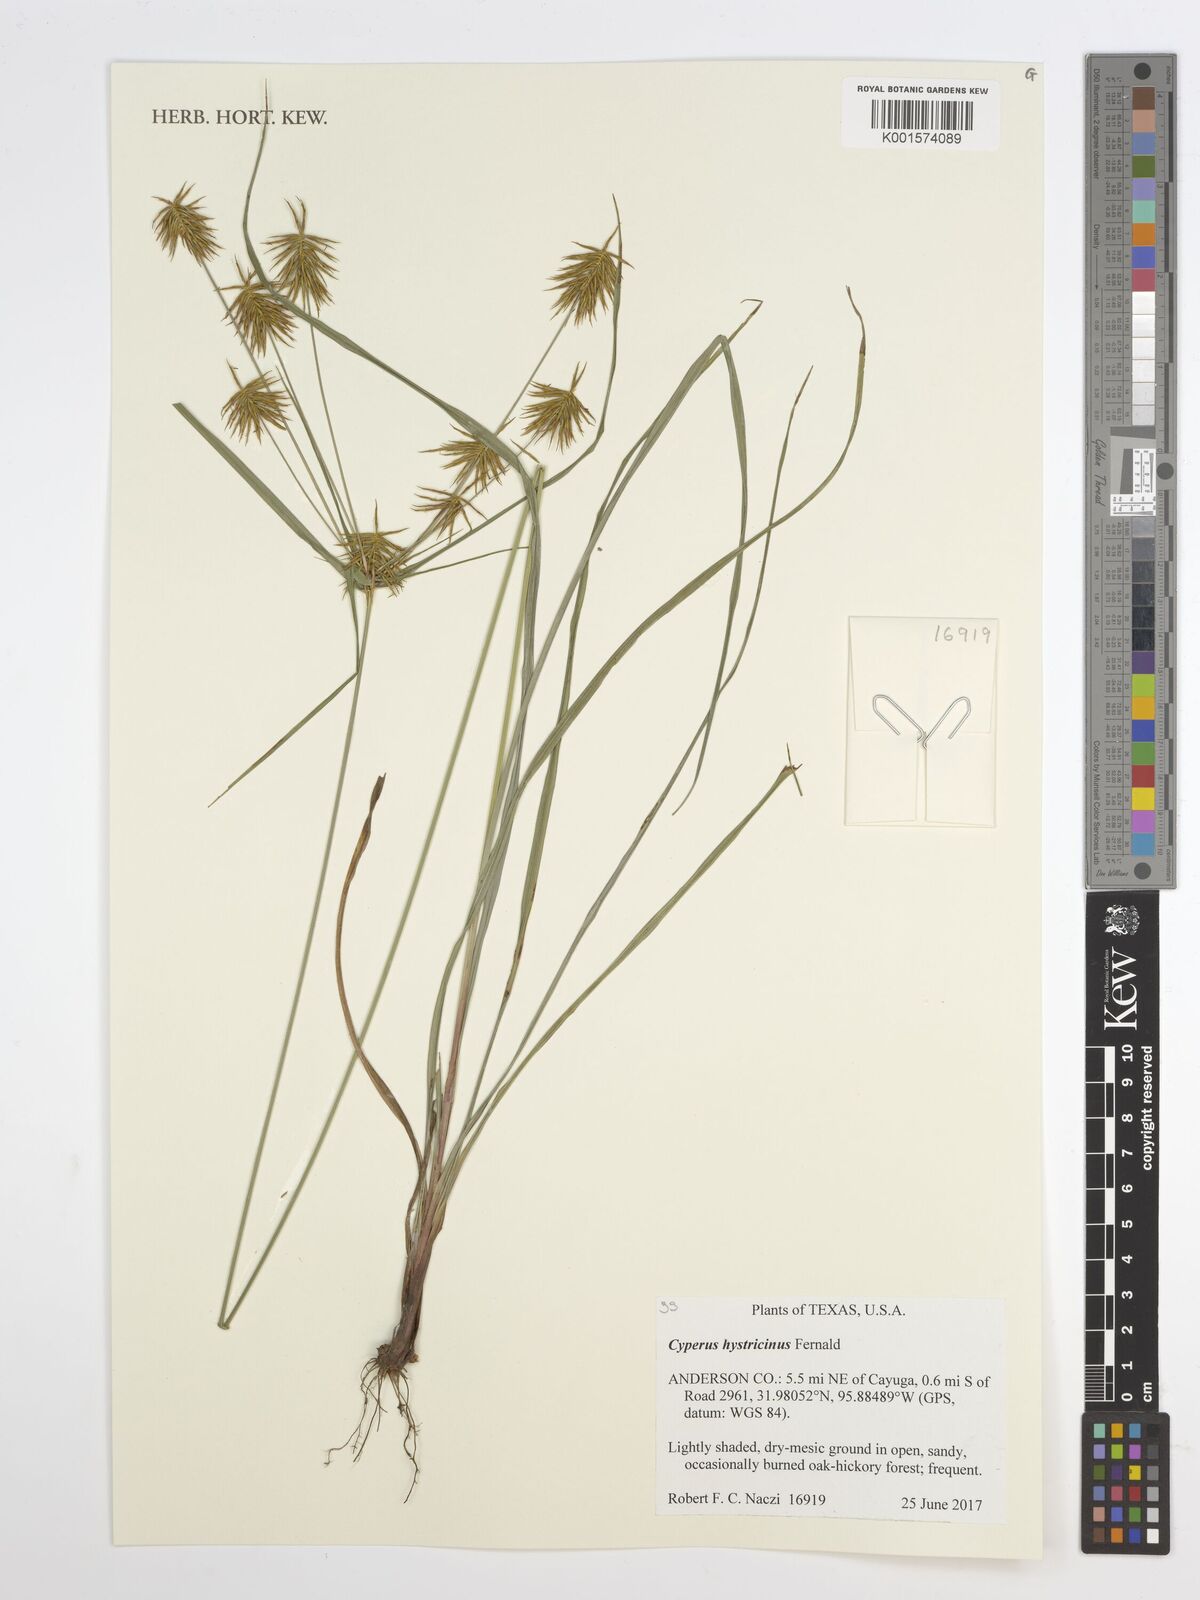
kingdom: Plantae
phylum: Tracheophyta
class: Liliopsida
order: Poales
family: Cyperaceae
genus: Cyperus
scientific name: Cyperus hystricinus
